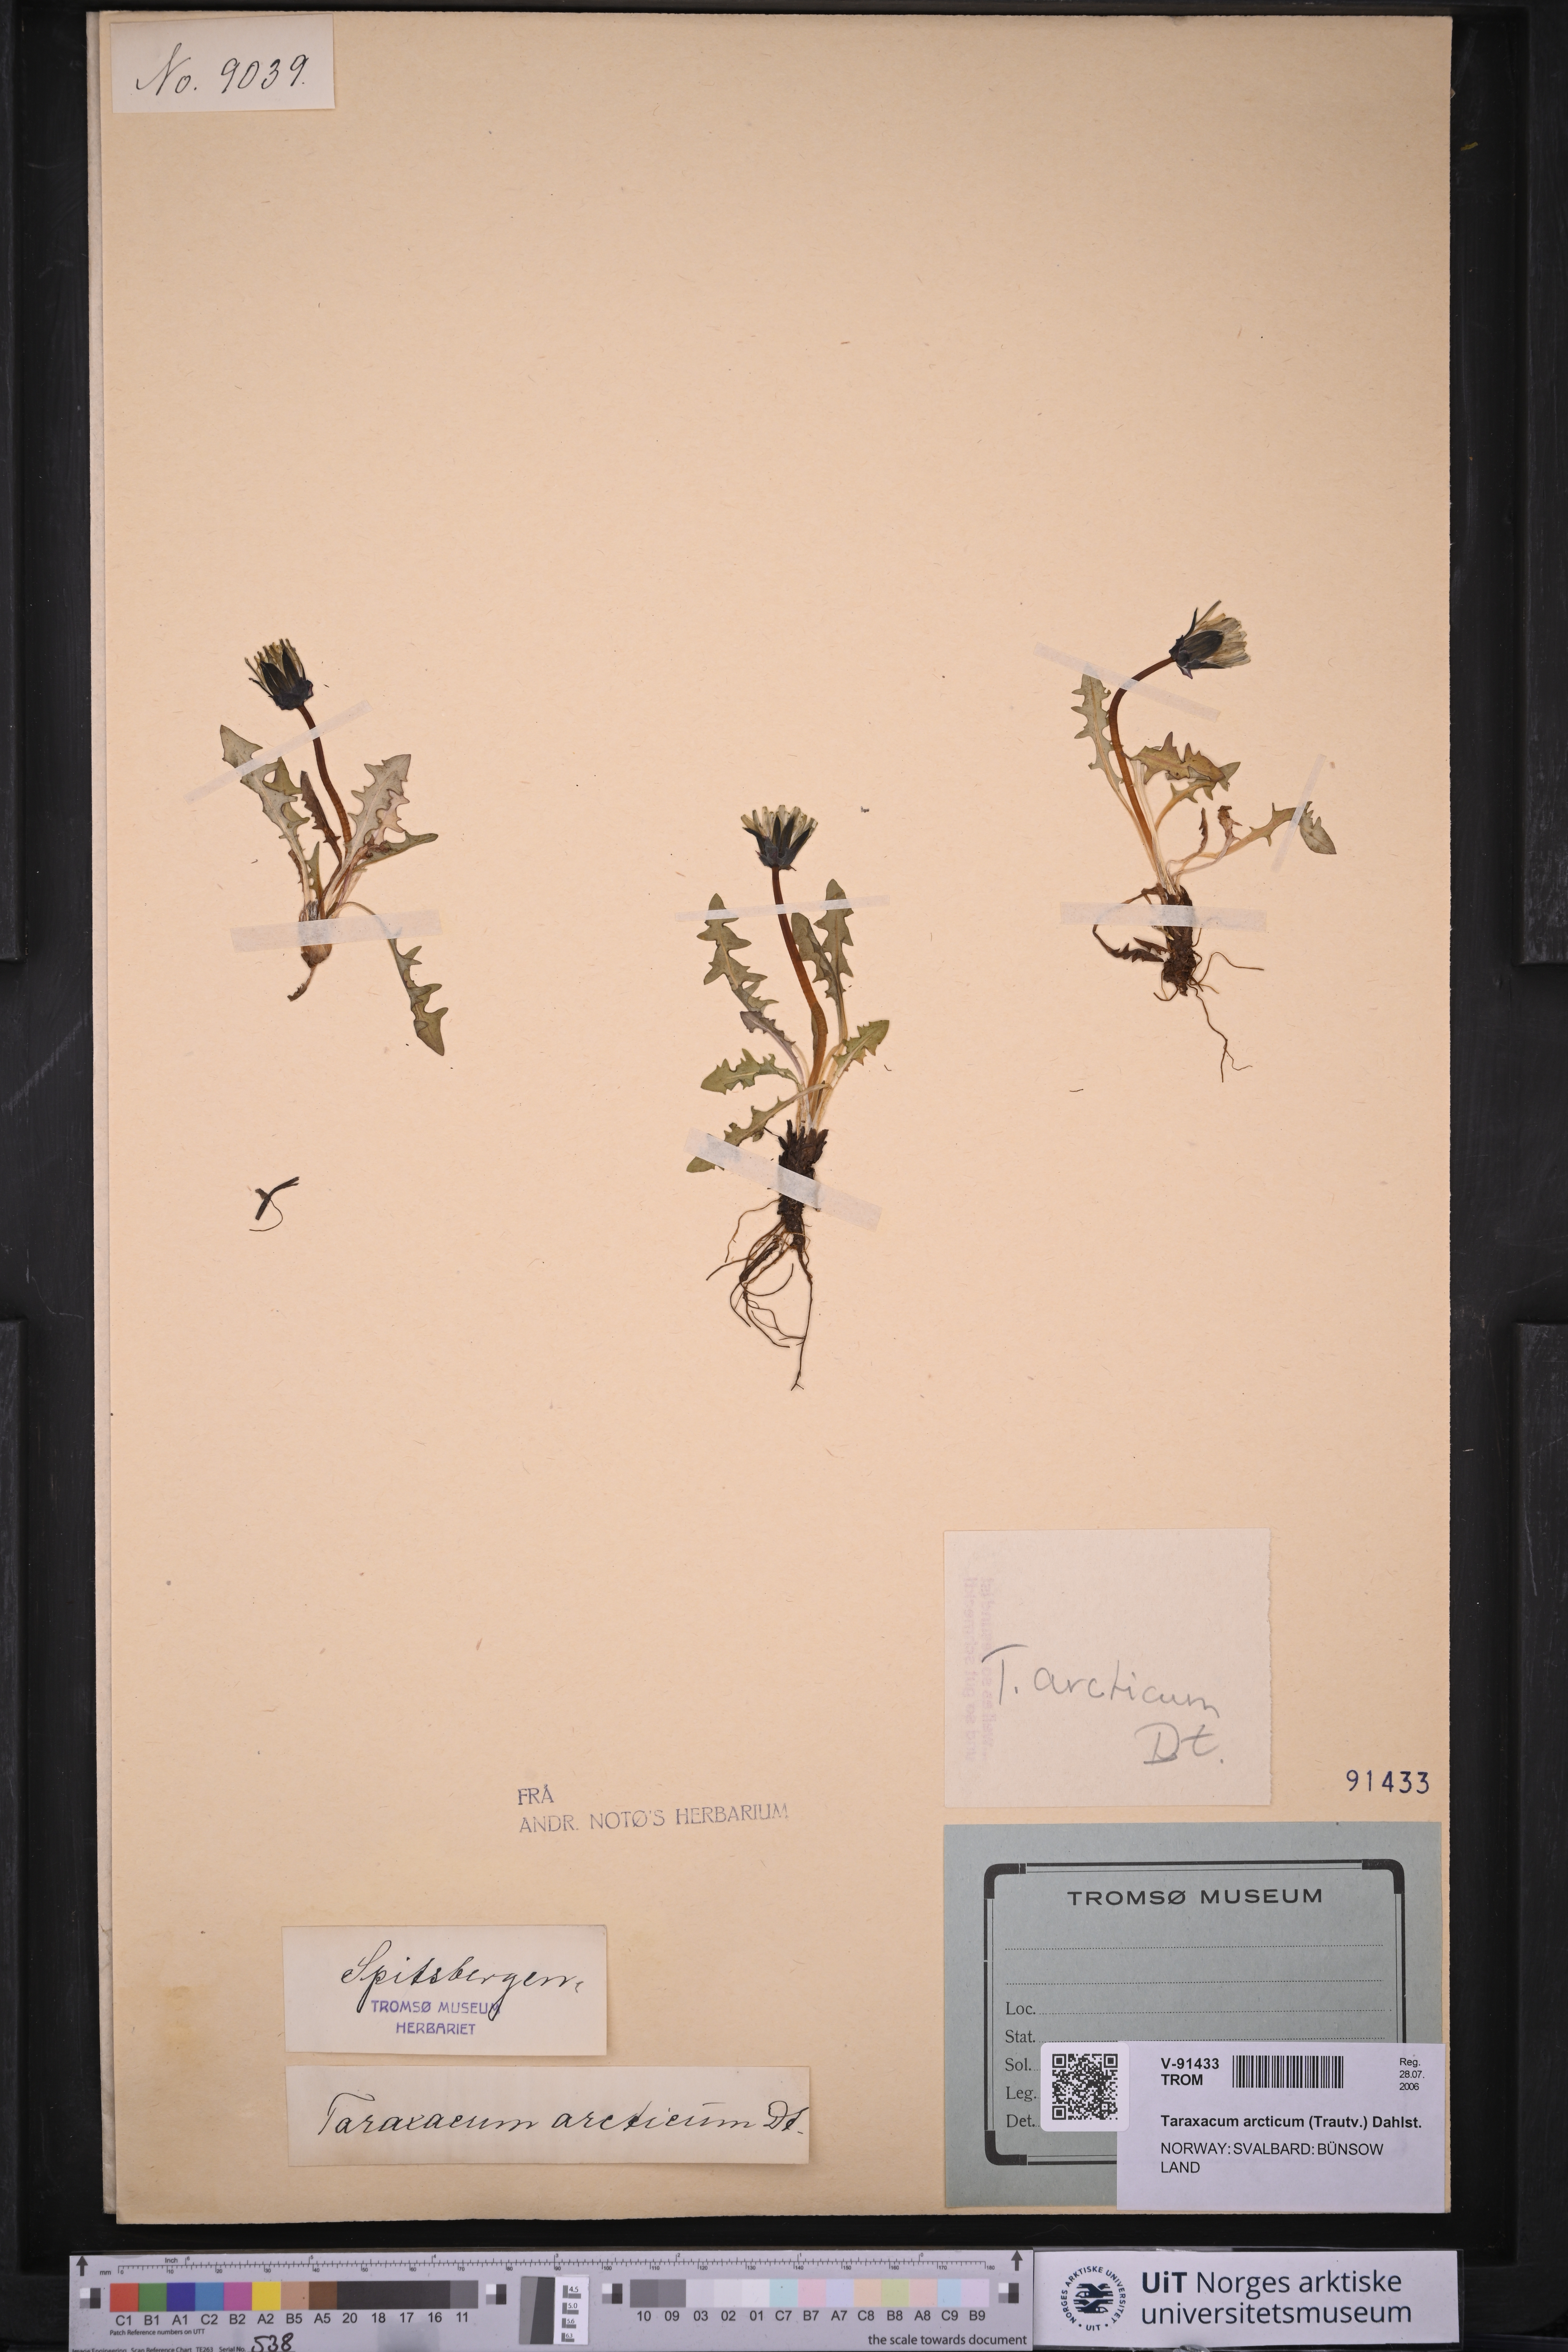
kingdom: Plantae
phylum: Tracheophyta
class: Magnoliopsida
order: Asterales
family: Asteraceae
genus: Taraxacum
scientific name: Taraxacum arcticum
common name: Arctic dandelion
